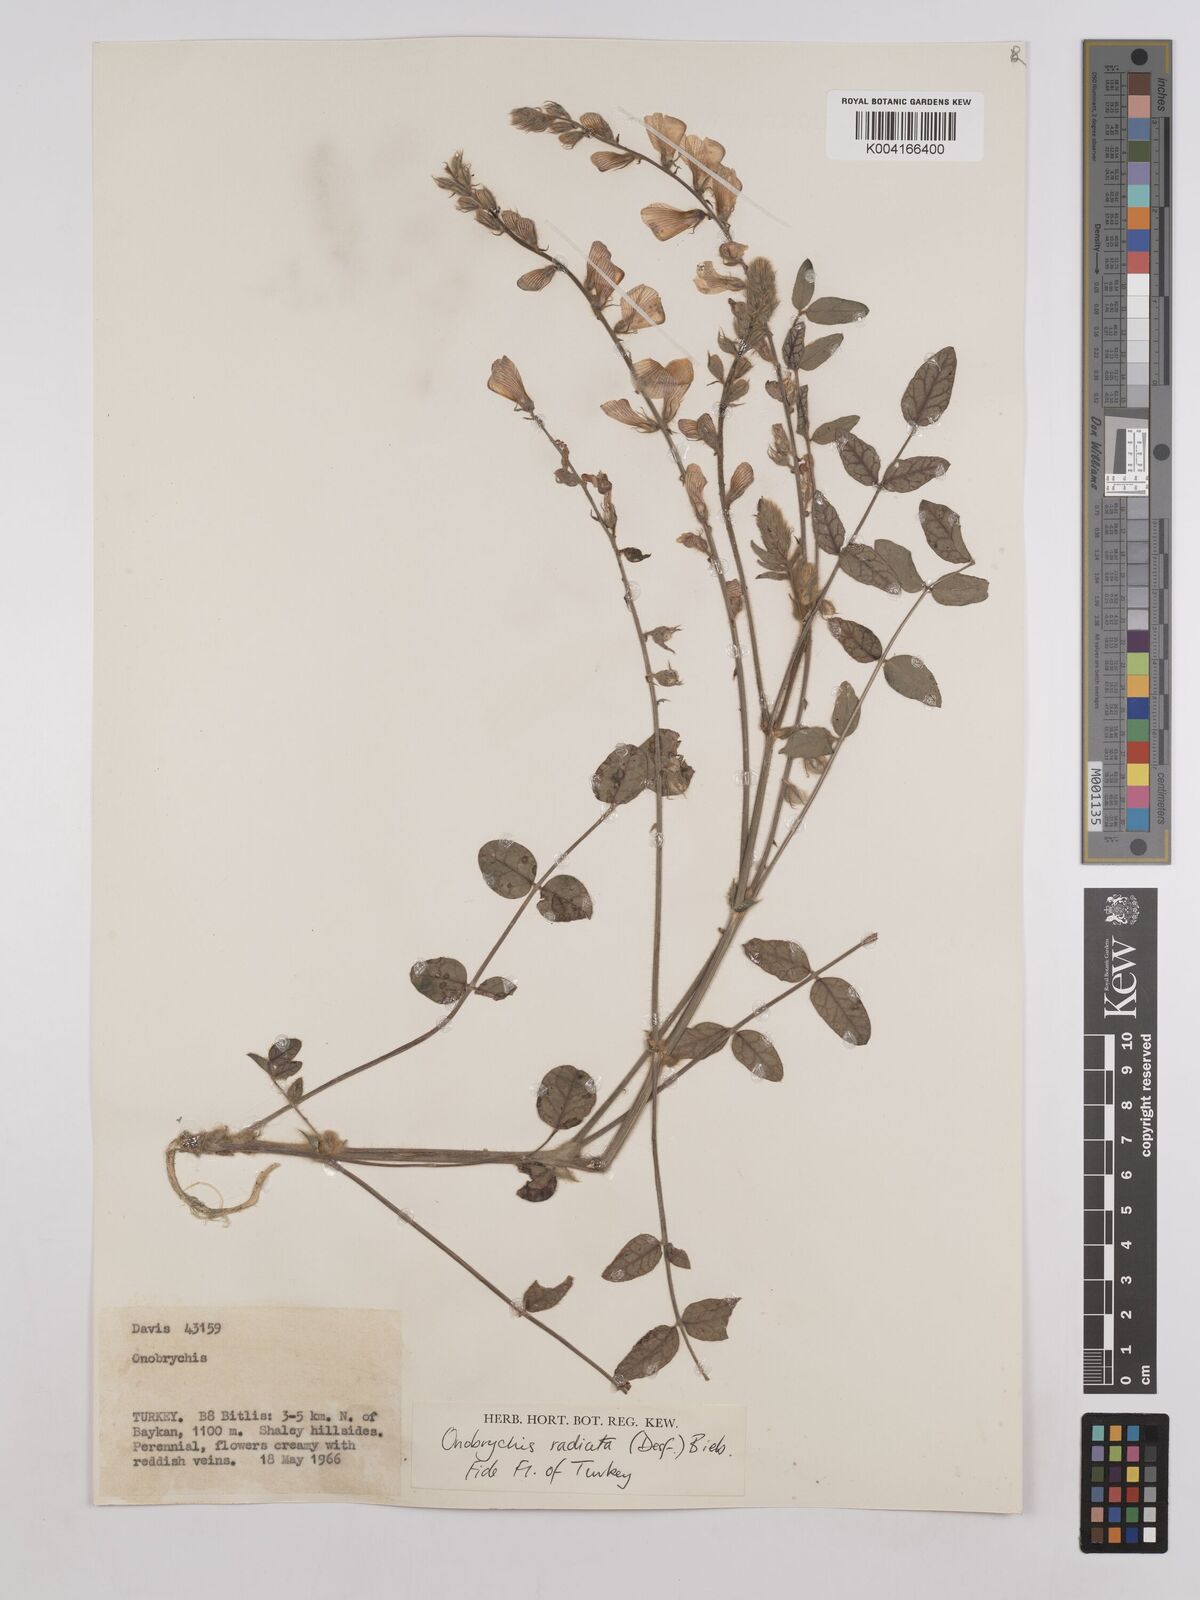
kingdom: Plantae
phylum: Tracheophyta
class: Magnoliopsida
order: Fabales
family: Fabaceae
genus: Onobrychis
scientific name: Onobrychis
